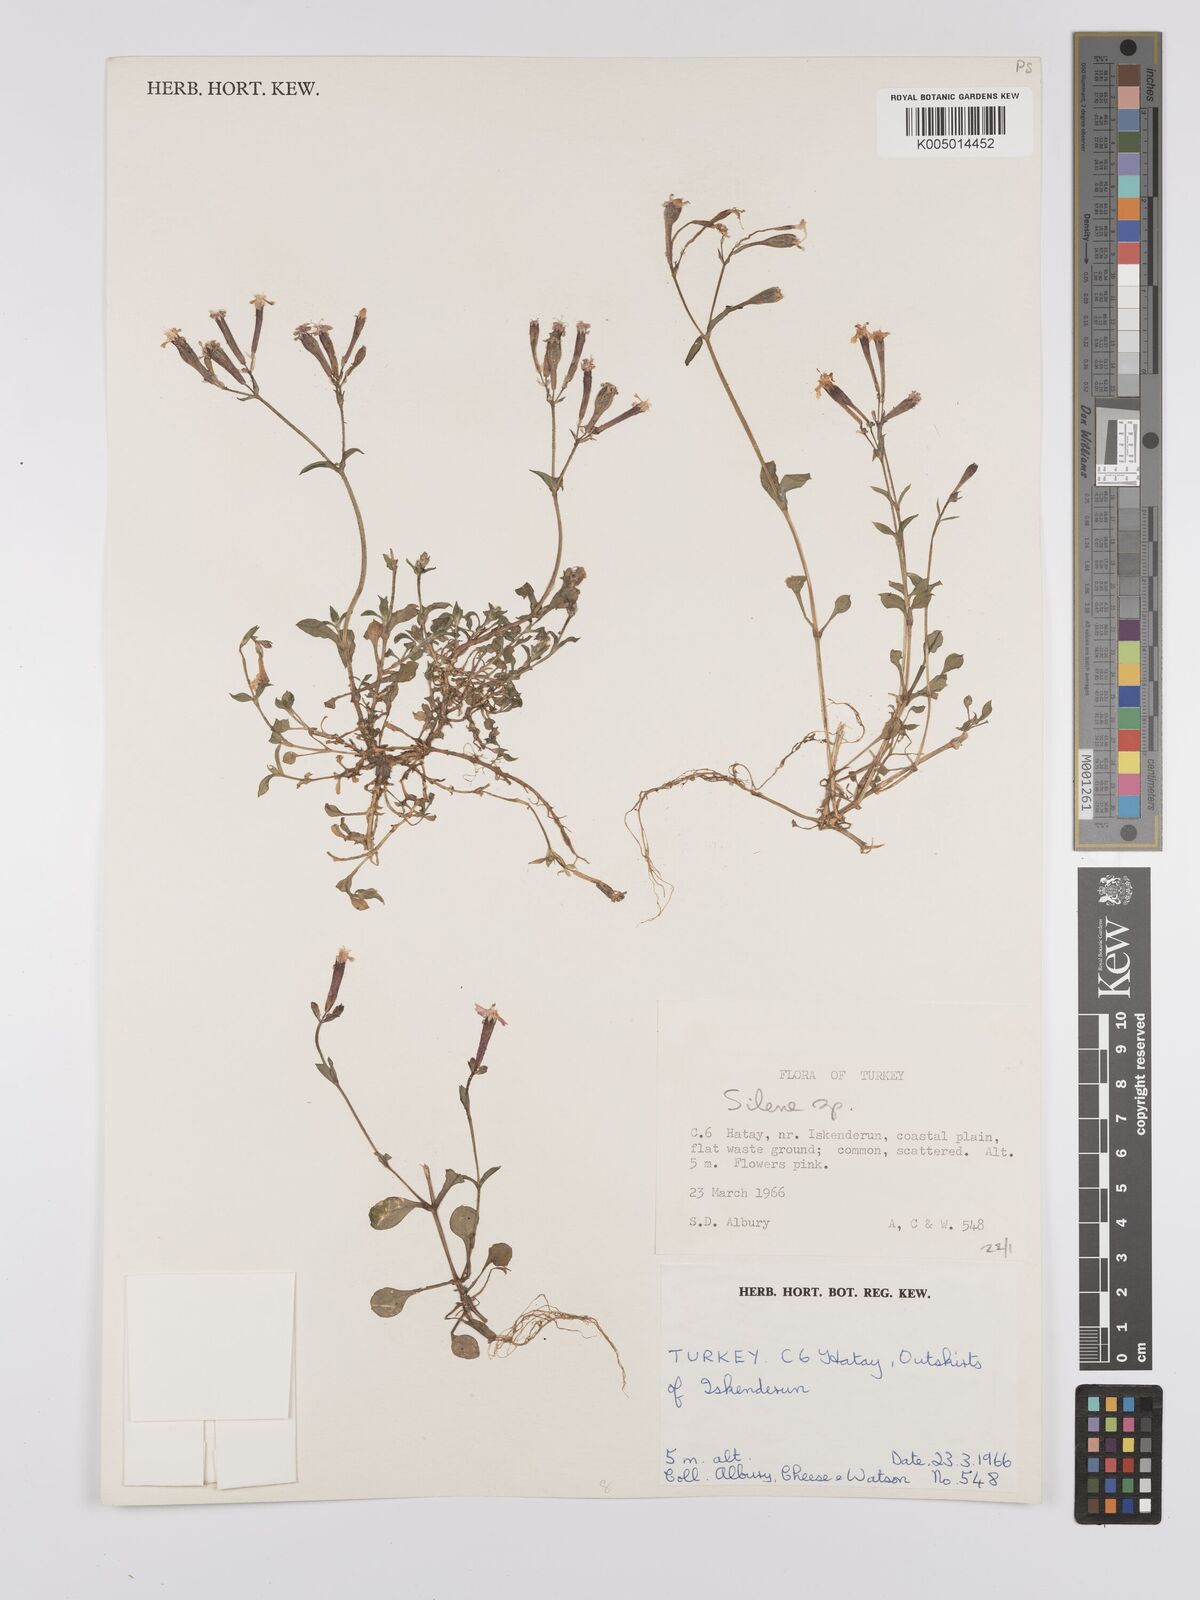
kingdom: Plantae
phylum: Tracheophyta
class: Magnoliopsida
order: Caryophyllales
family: Caryophyllaceae
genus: Silene
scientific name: Silene
